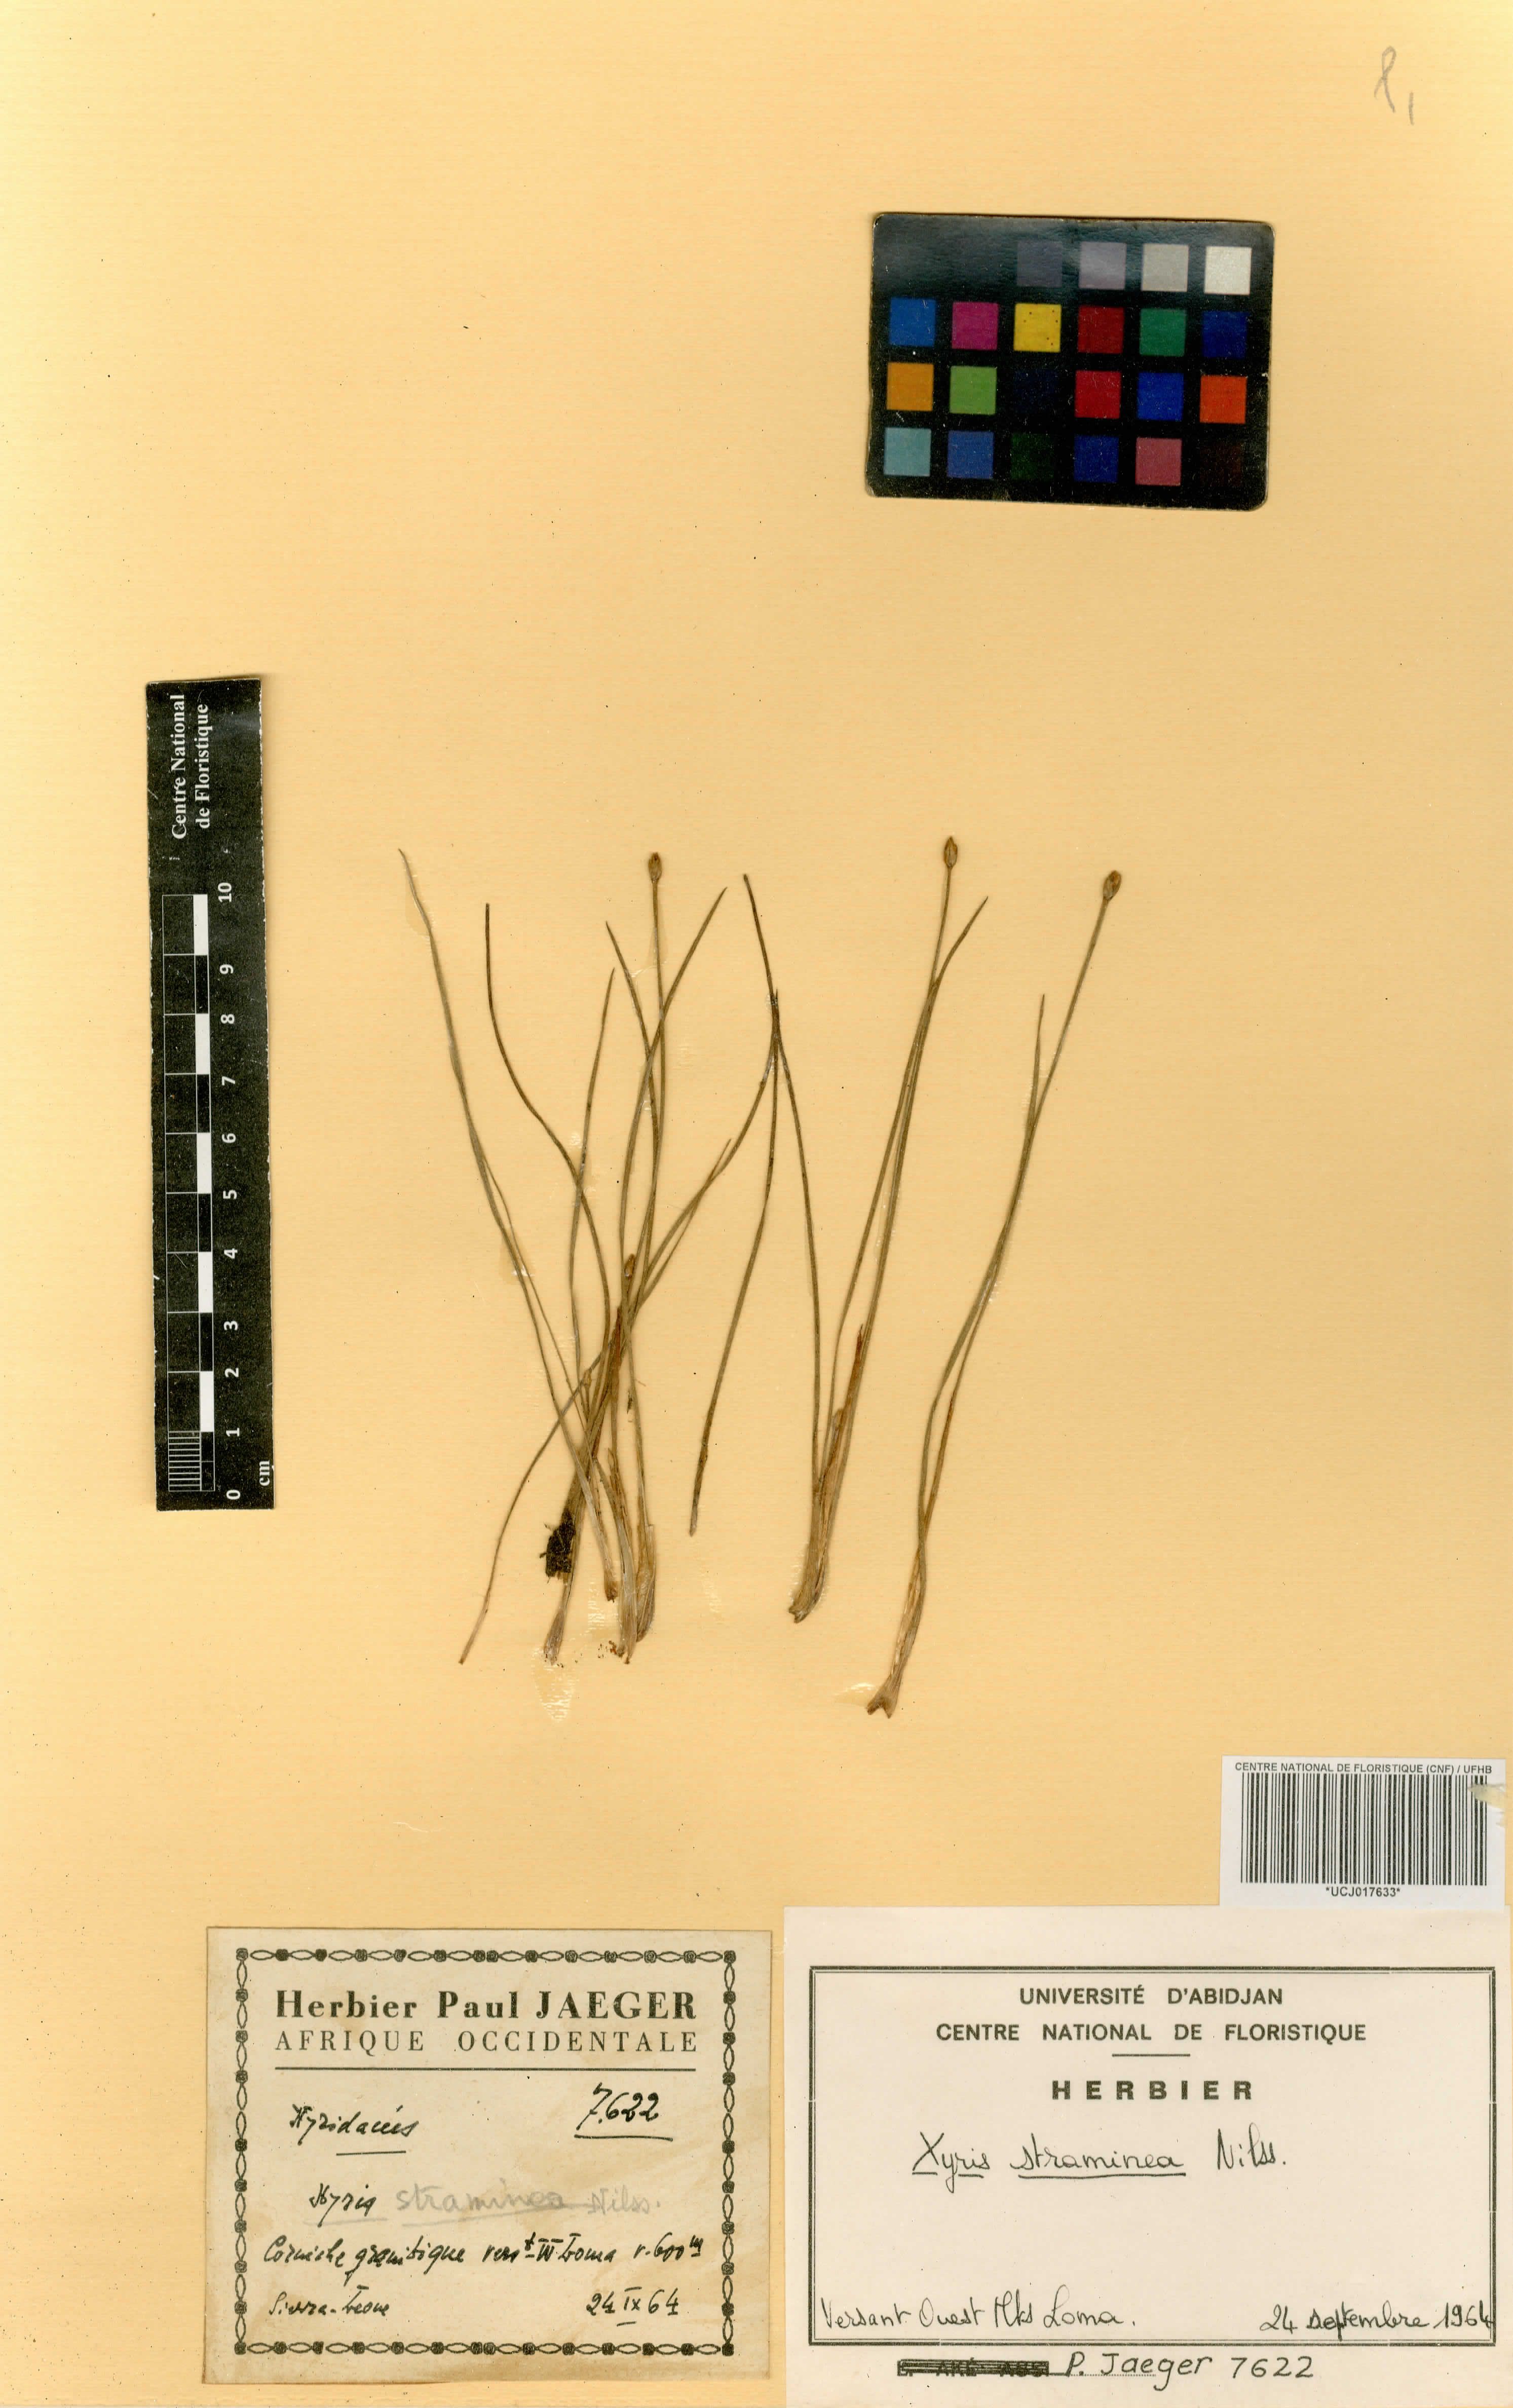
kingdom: Plantae
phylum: Tracheophyta
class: Liliopsida
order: Poales
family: Xyridaceae
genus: Xyris
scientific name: Xyris straminea
